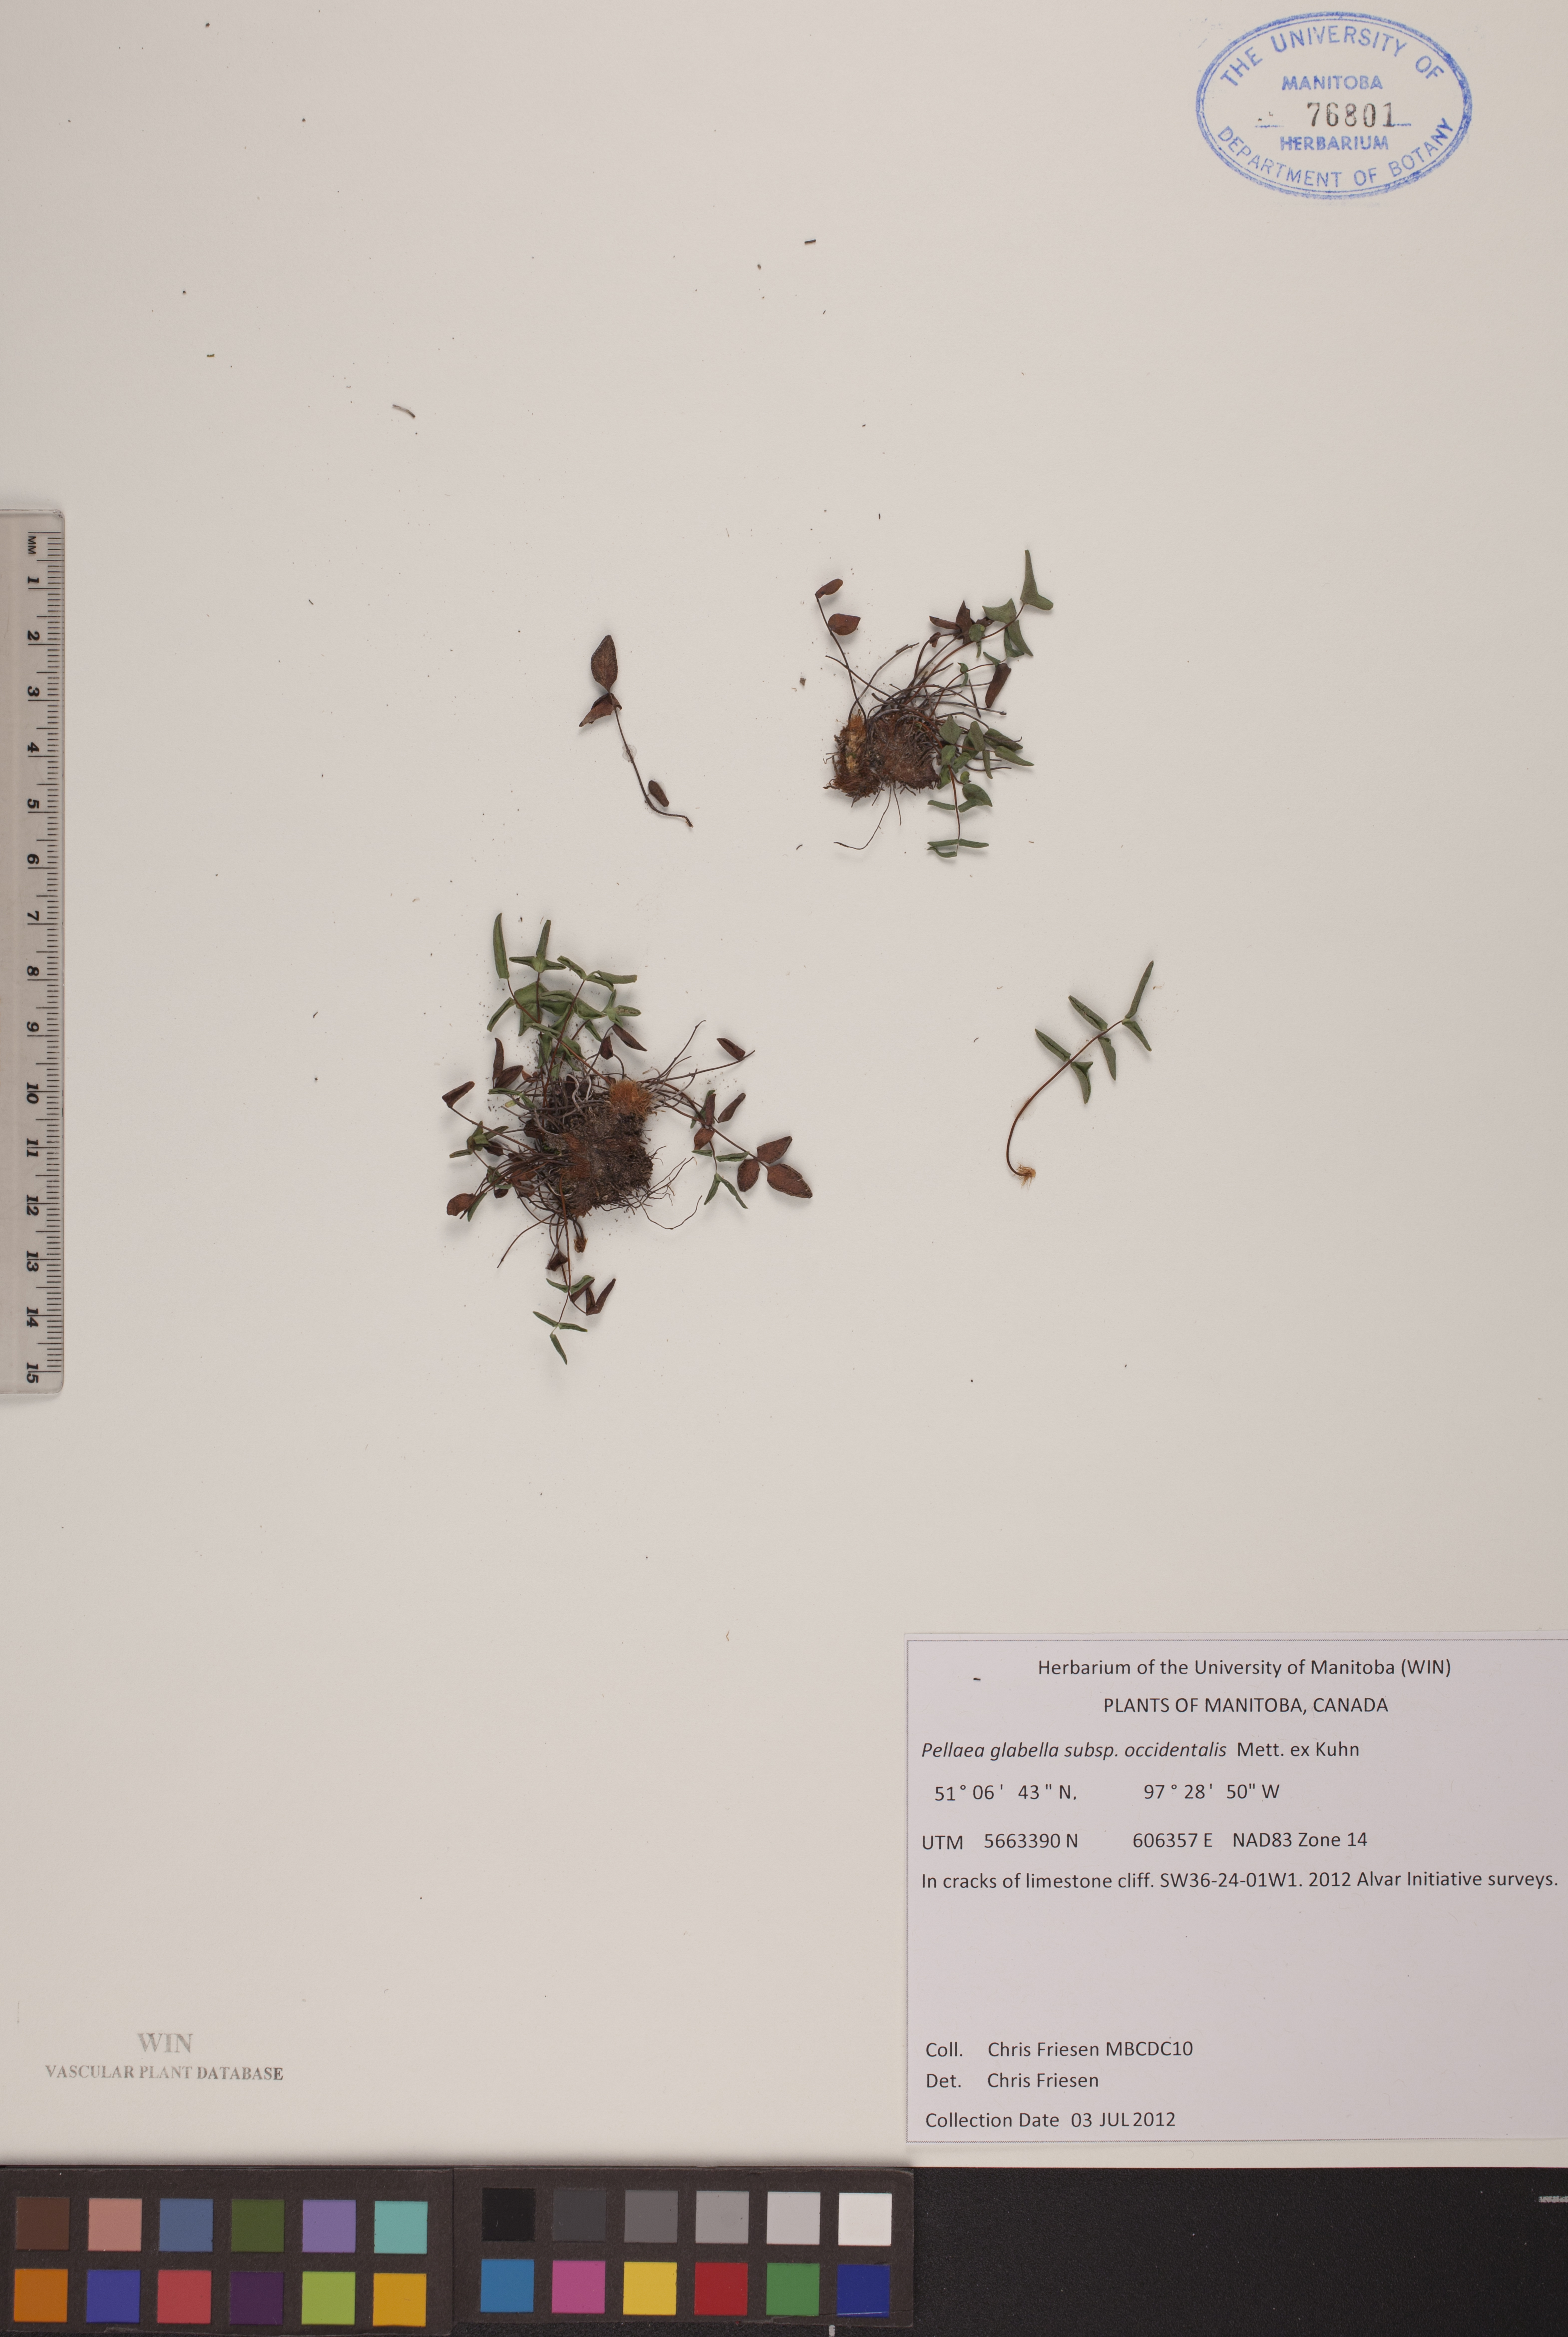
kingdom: Plantae
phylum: Tracheophyta
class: Polypodiopsida
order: Polypodiales
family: Pteridaceae
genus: Pellaea
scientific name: Pellaea glabella
